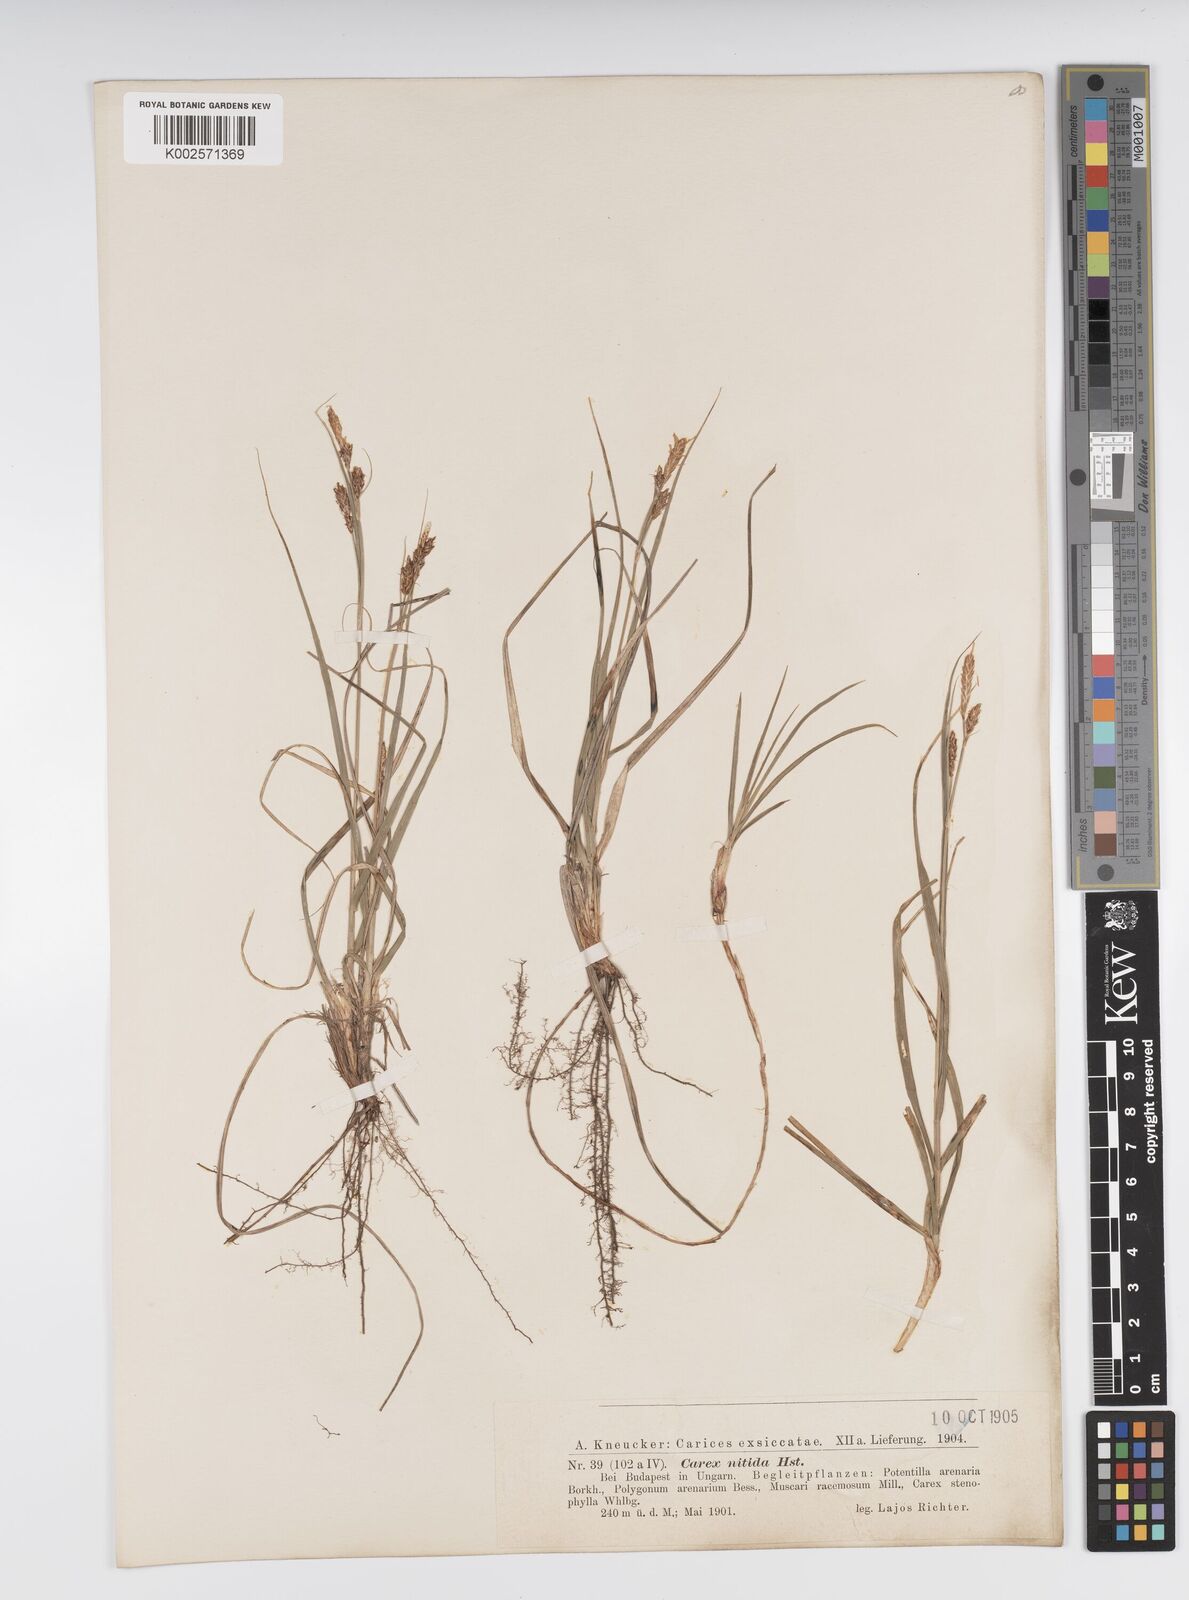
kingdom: Plantae
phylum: Tracheophyta
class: Liliopsida
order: Poales
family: Cyperaceae
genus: Carex
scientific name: Carex liparocarpos
